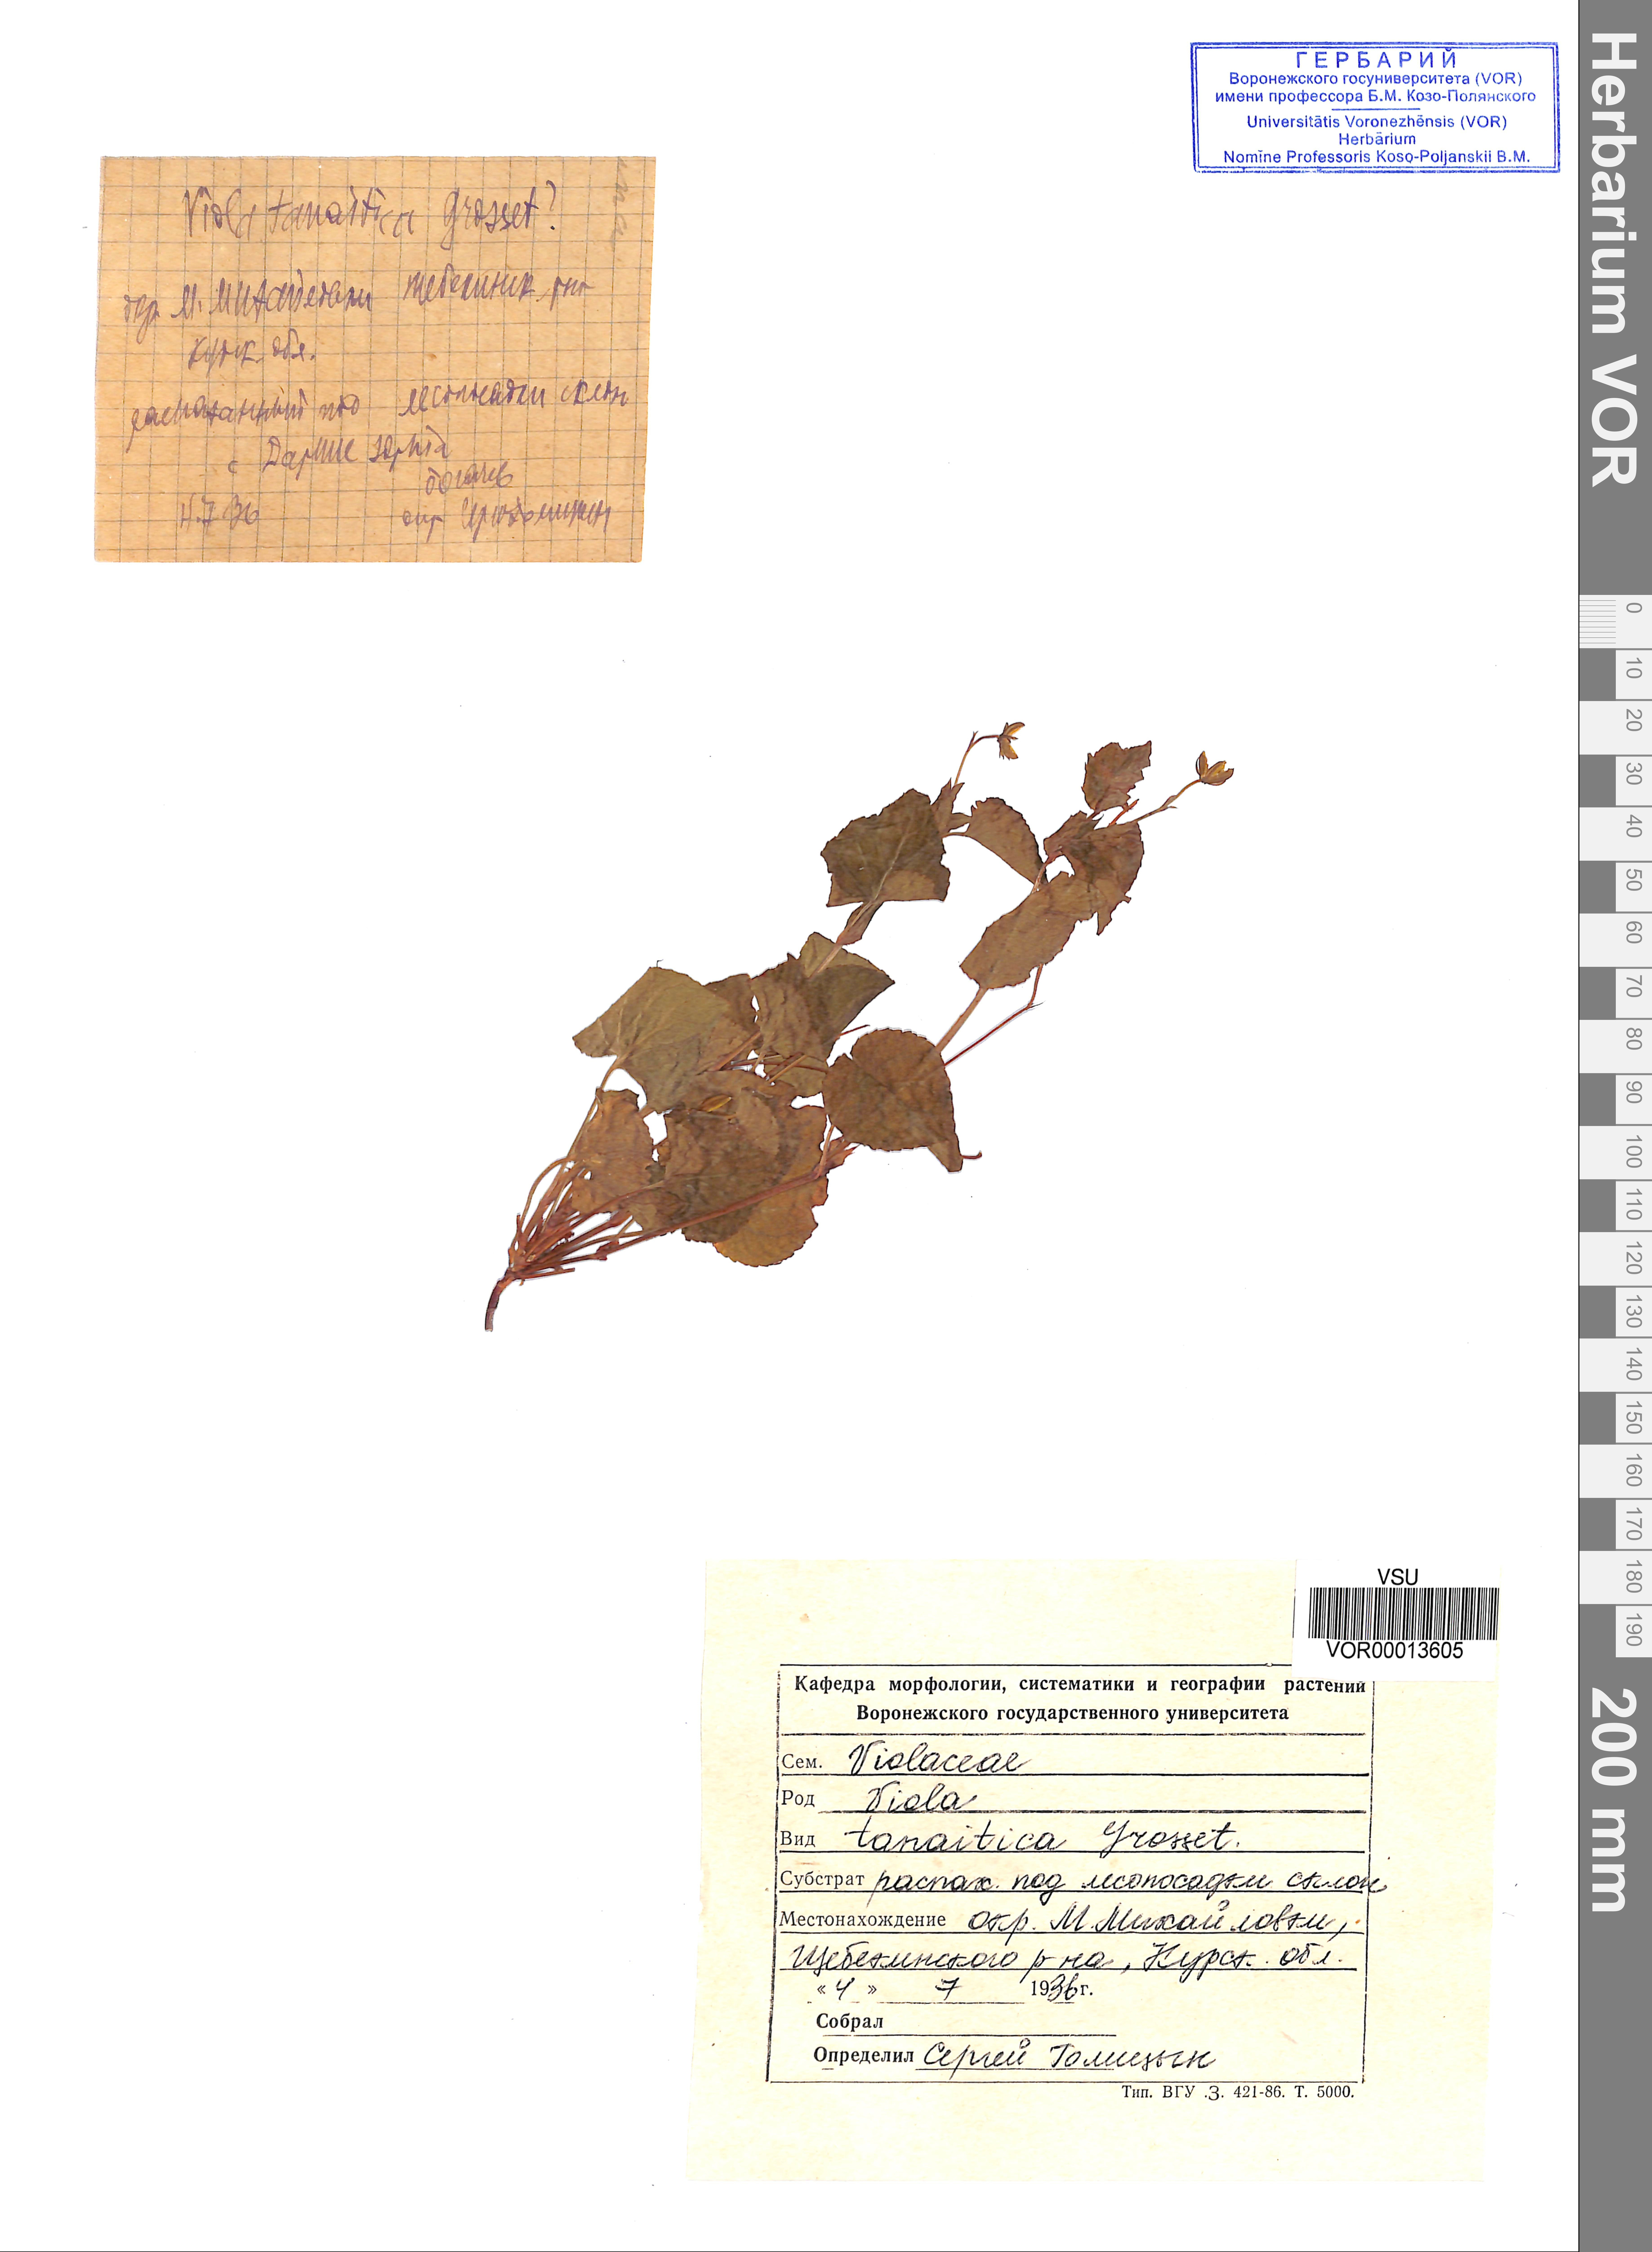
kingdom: Plantae
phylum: Tracheophyta
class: Magnoliopsida
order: Malpighiales
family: Violaceae
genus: Viola
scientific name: Viola tanaitica
